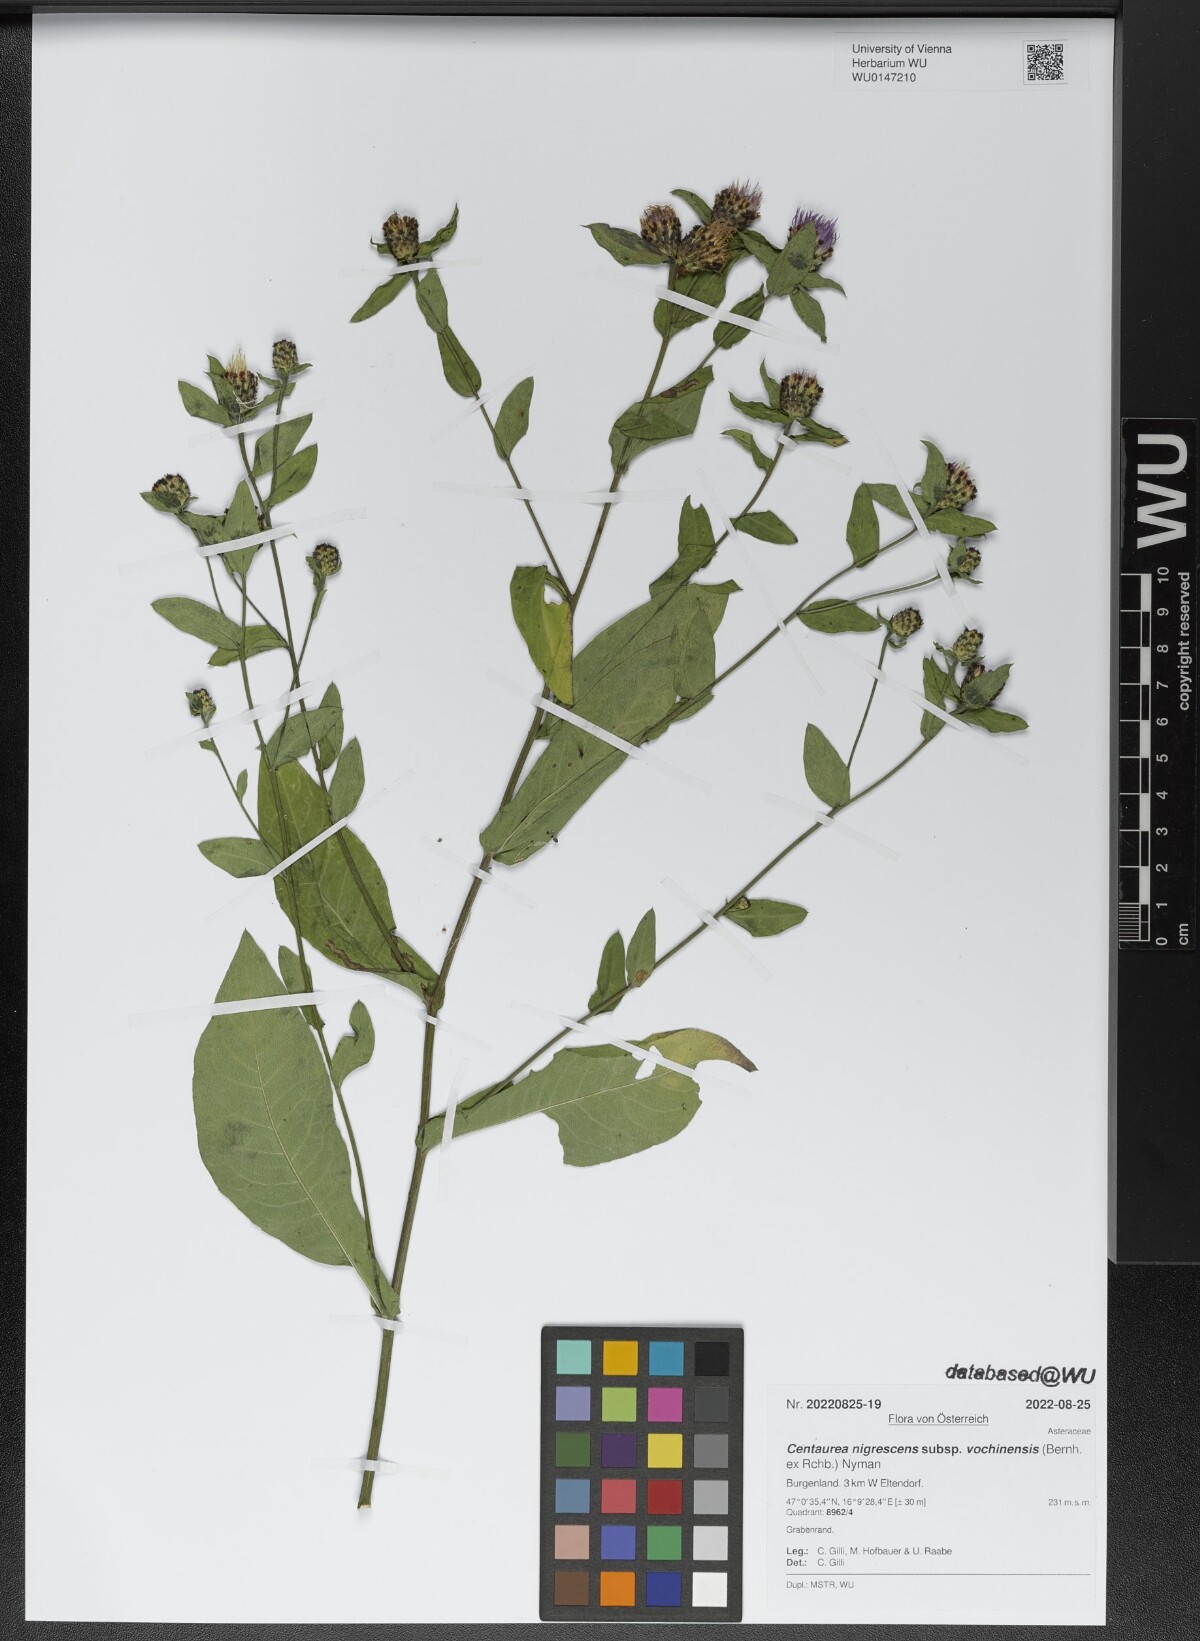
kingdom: Plantae
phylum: Tracheophyta
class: Magnoliopsida
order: Asterales
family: Asteraceae
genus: Centaurea
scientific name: Centaurea carniolica
